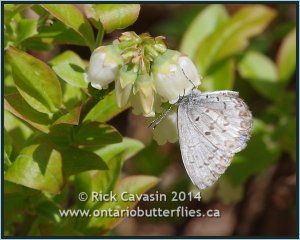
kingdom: Animalia
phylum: Arthropoda
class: Insecta
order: Lepidoptera
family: Lycaenidae
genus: Celastrina
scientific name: Celastrina lucia
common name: Northern Spring Azure
